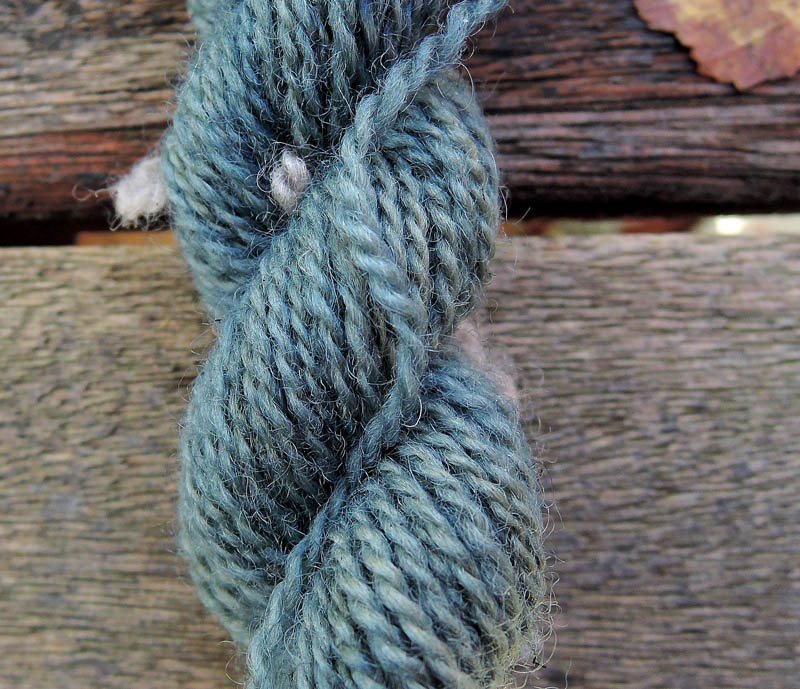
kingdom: Fungi
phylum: Basidiomycota
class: Agaricomycetes
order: Thelephorales
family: Bankeraceae
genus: Sarcodon
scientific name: Sarcodon squamosus
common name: småskællet kødpigsvamp
